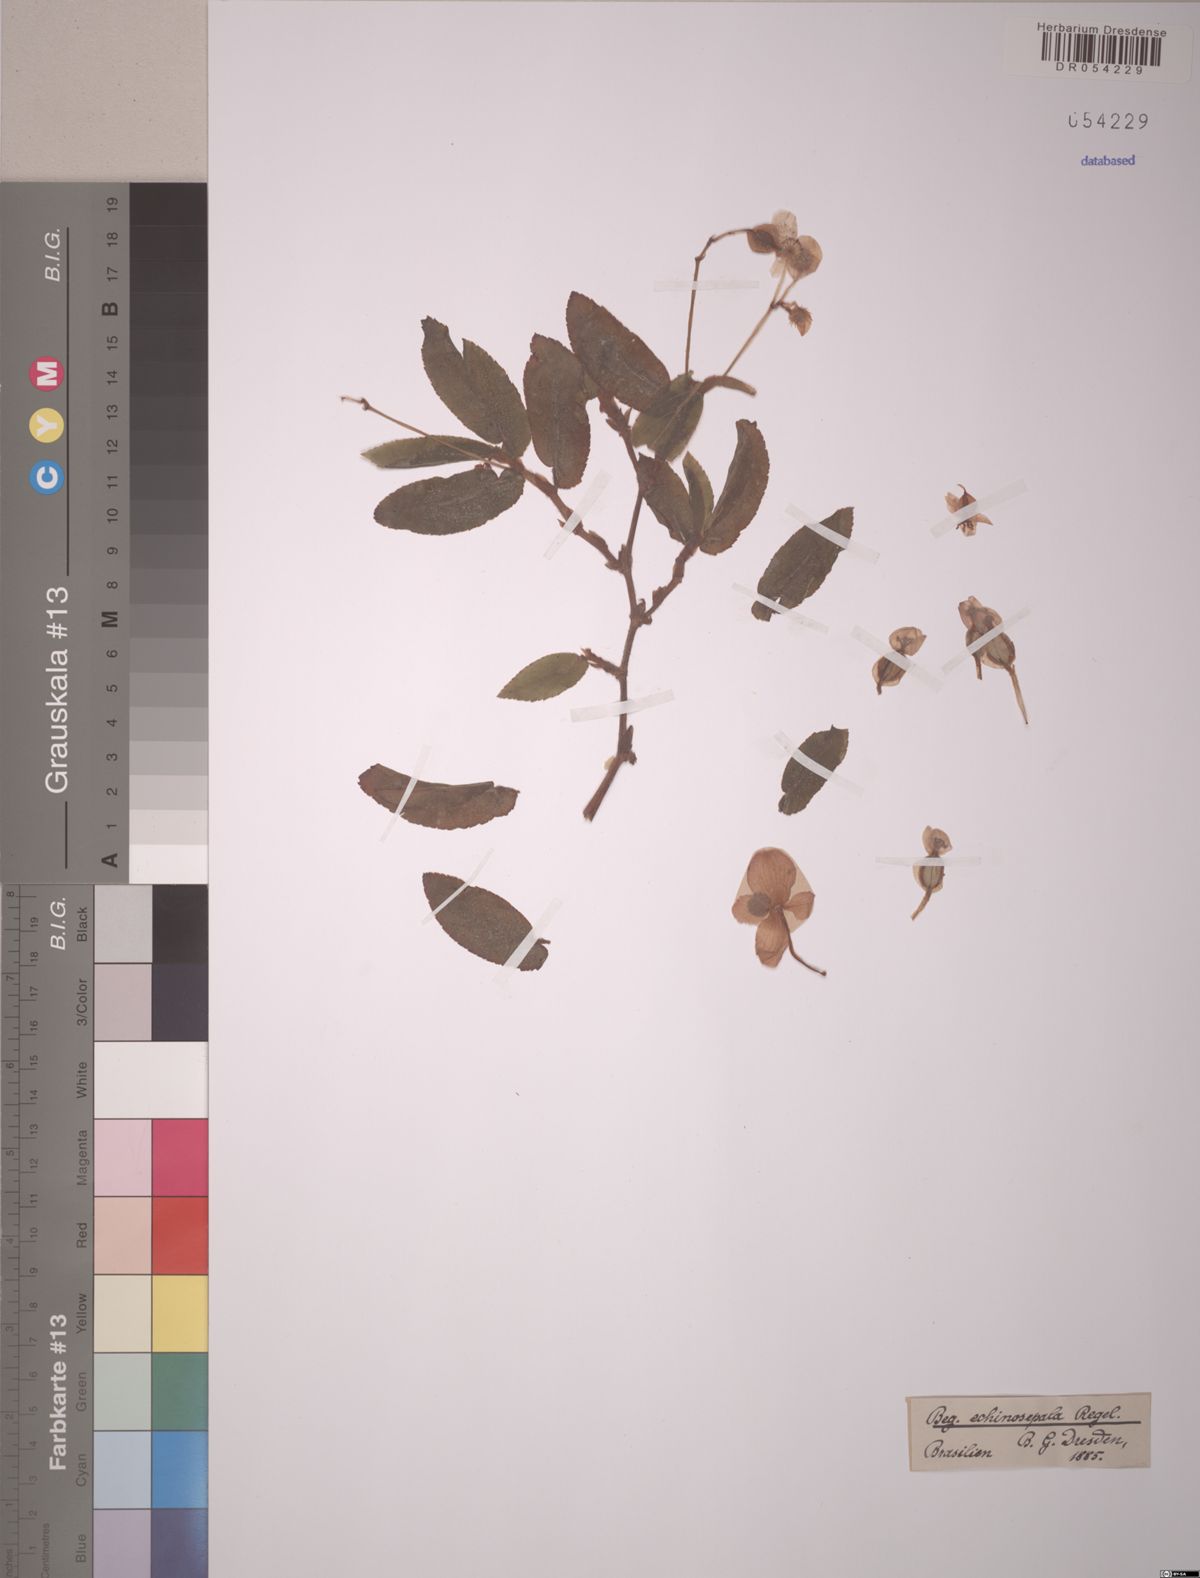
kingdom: Plantae
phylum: Tracheophyta
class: Magnoliopsida
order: Cucurbitales
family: Begoniaceae
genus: Begonia
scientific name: Begonia echinosepala
